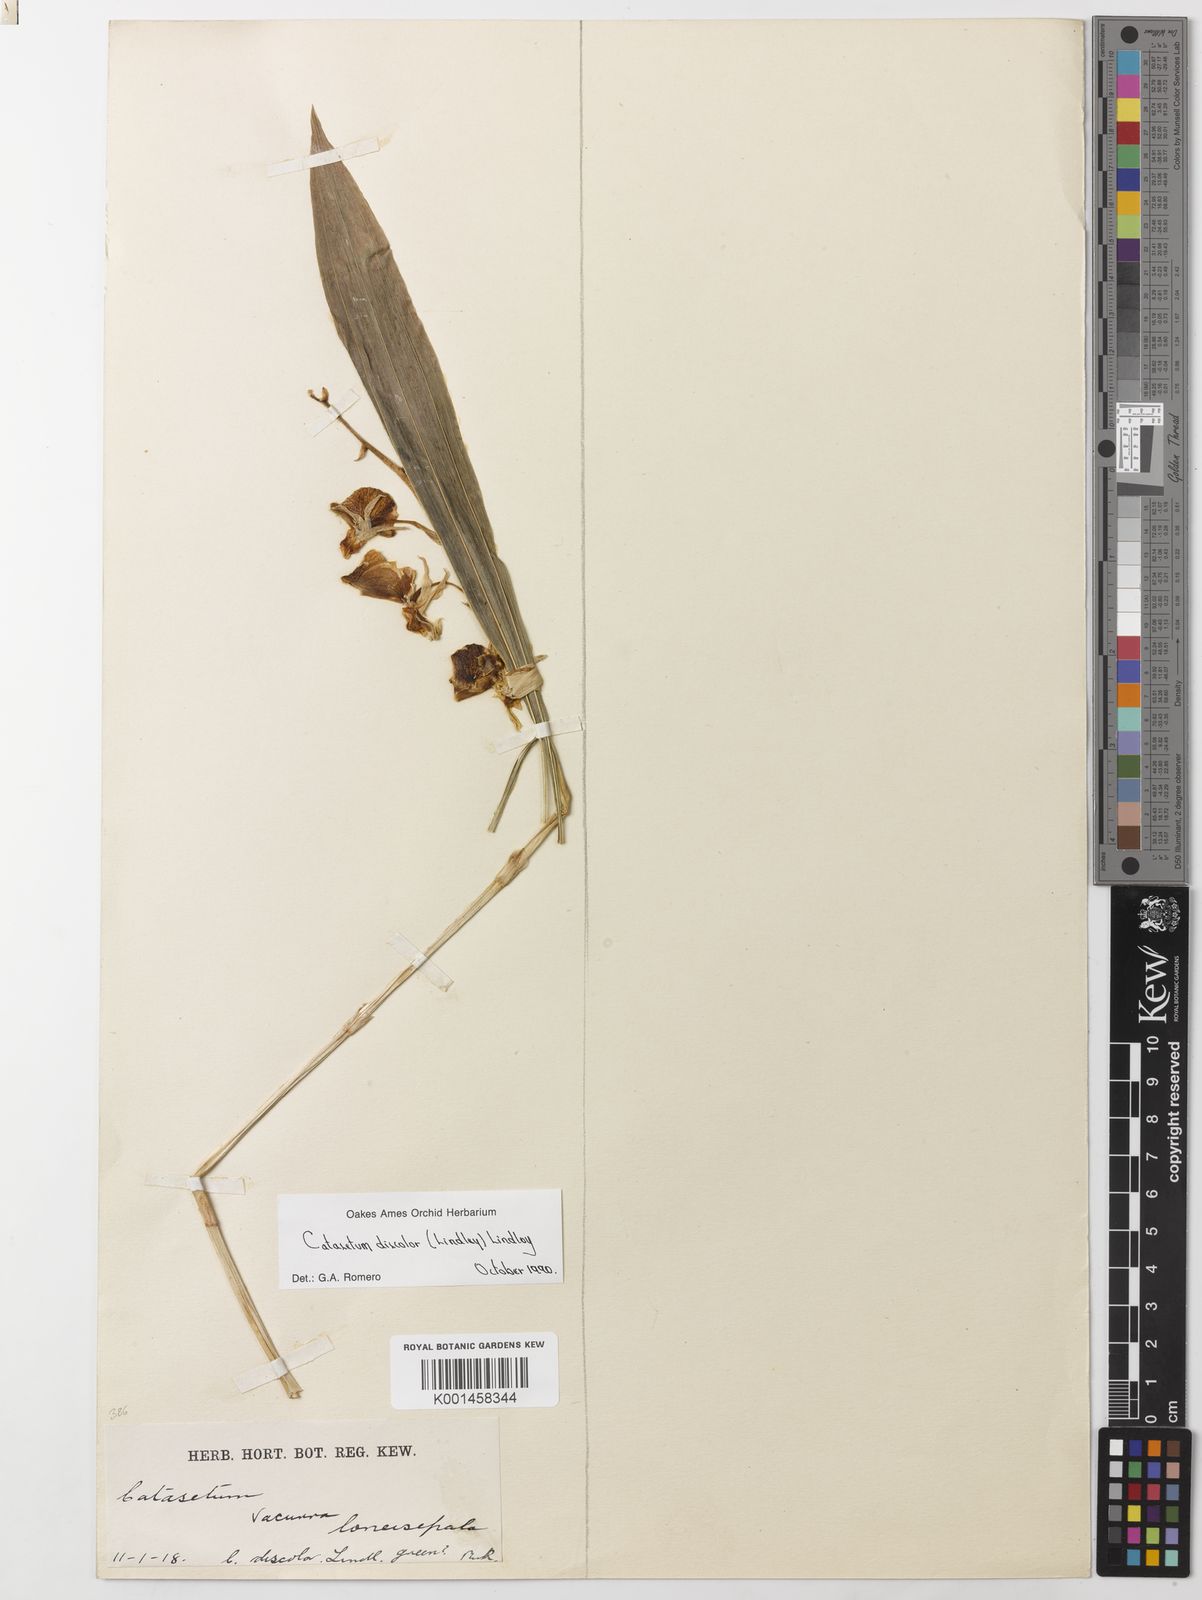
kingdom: Plantae
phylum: Tracheophyta
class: Liliopsida
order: Asparagales
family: Orchidaceae
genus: Catasetum
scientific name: Catasetum discolor
